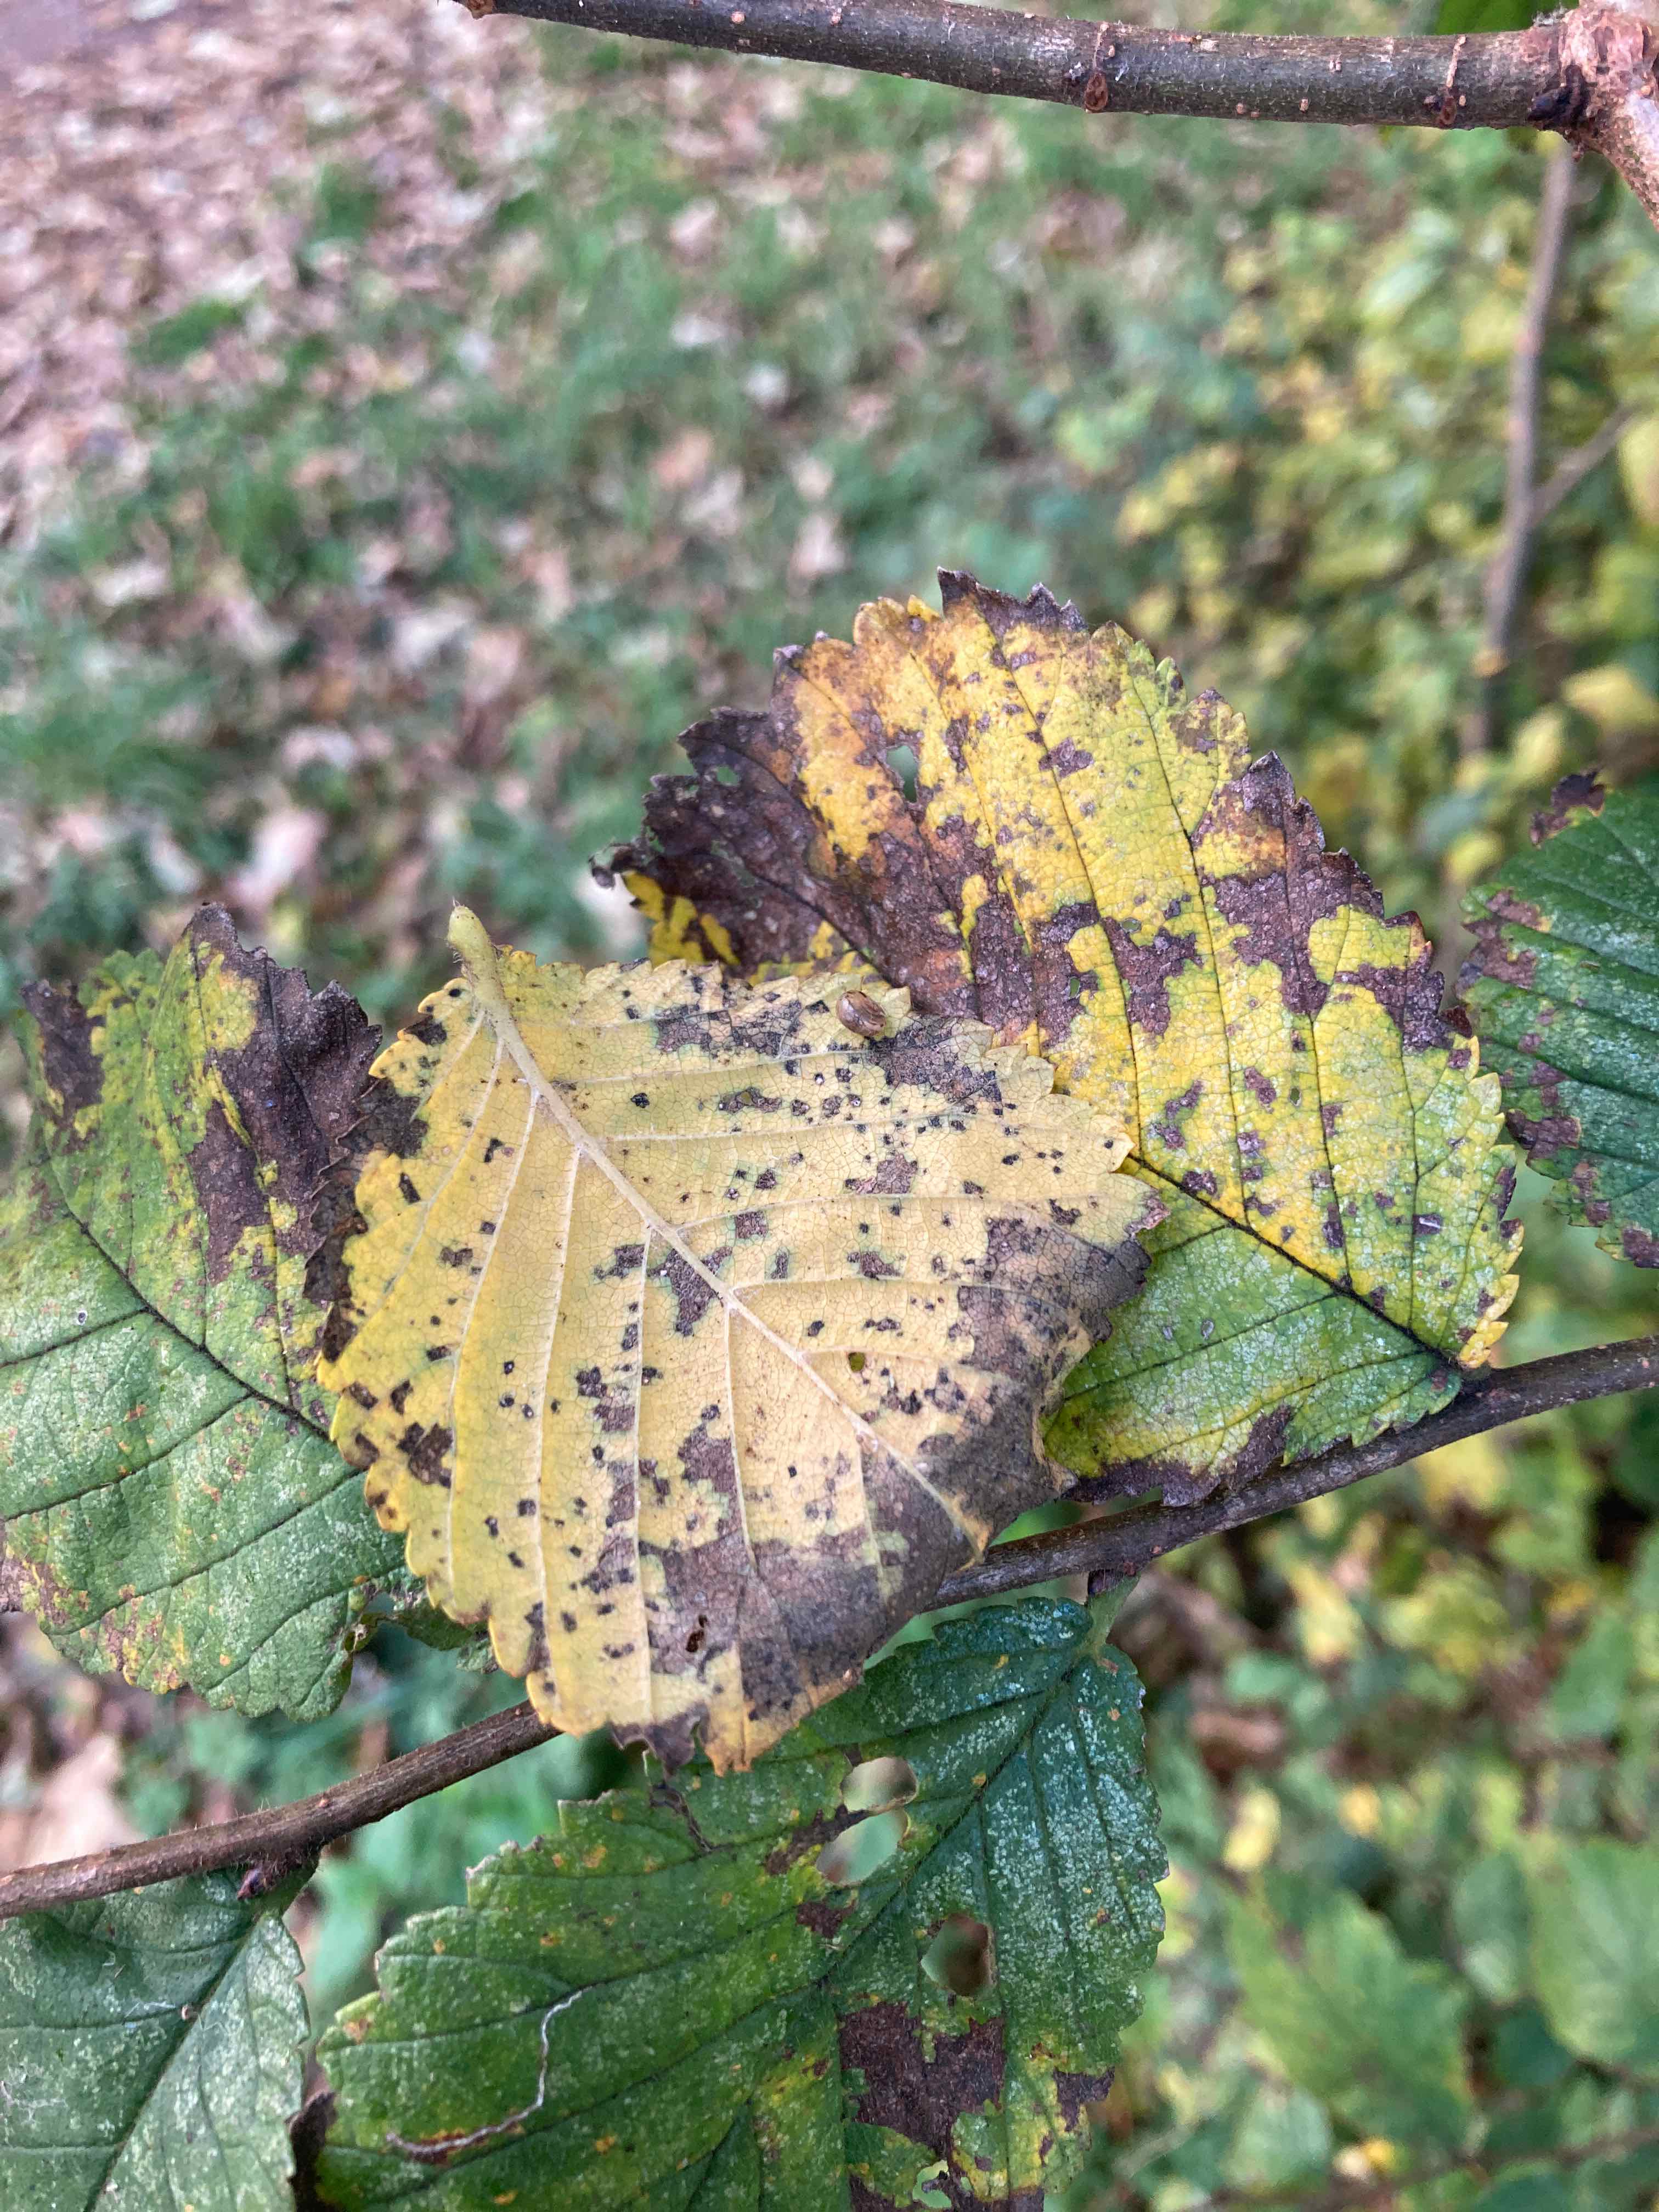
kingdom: Fungi
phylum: Ascomycota
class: Dothideomycetes
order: Mycosphaerellales
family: Mycosphaerellaceae
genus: Mycosphaerella
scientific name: Mycosphaerella ulmi
